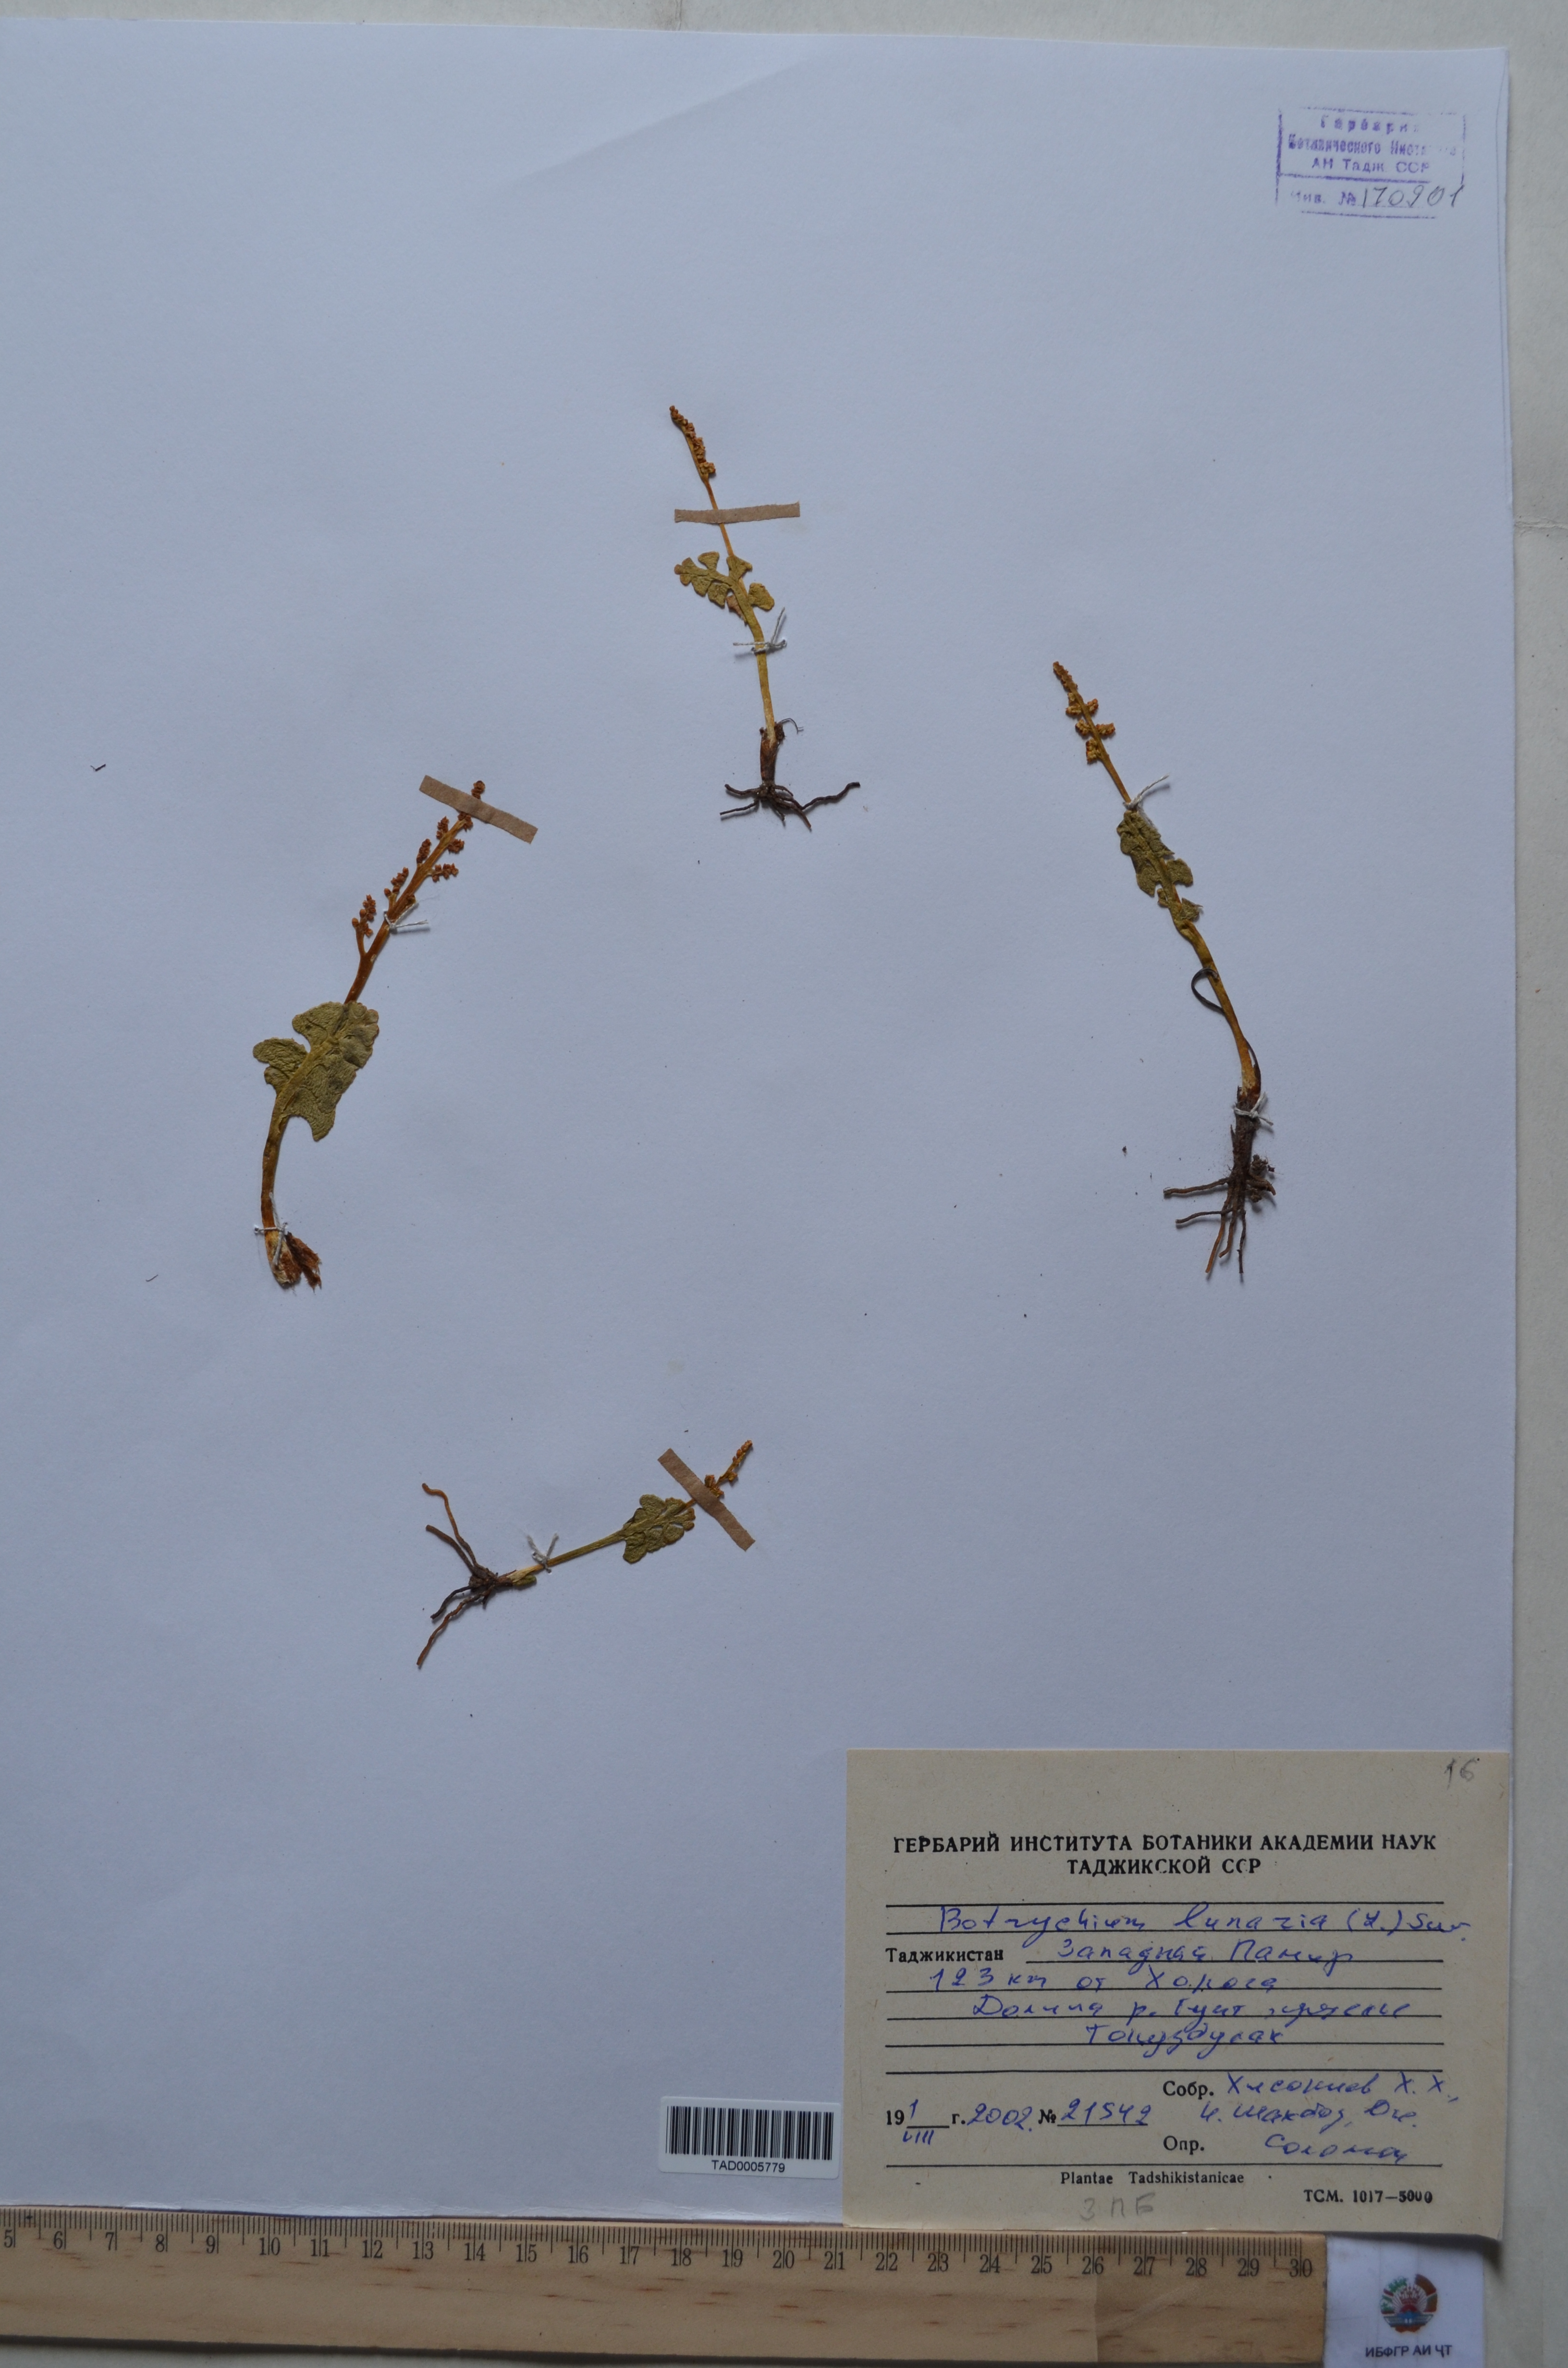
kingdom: Plantae
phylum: Tracheophyta
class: Polypodiopsida
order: Ophioglossales
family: Ophioglossaceae
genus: Botrychium
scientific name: Botrychium lunaria
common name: Moonwort
